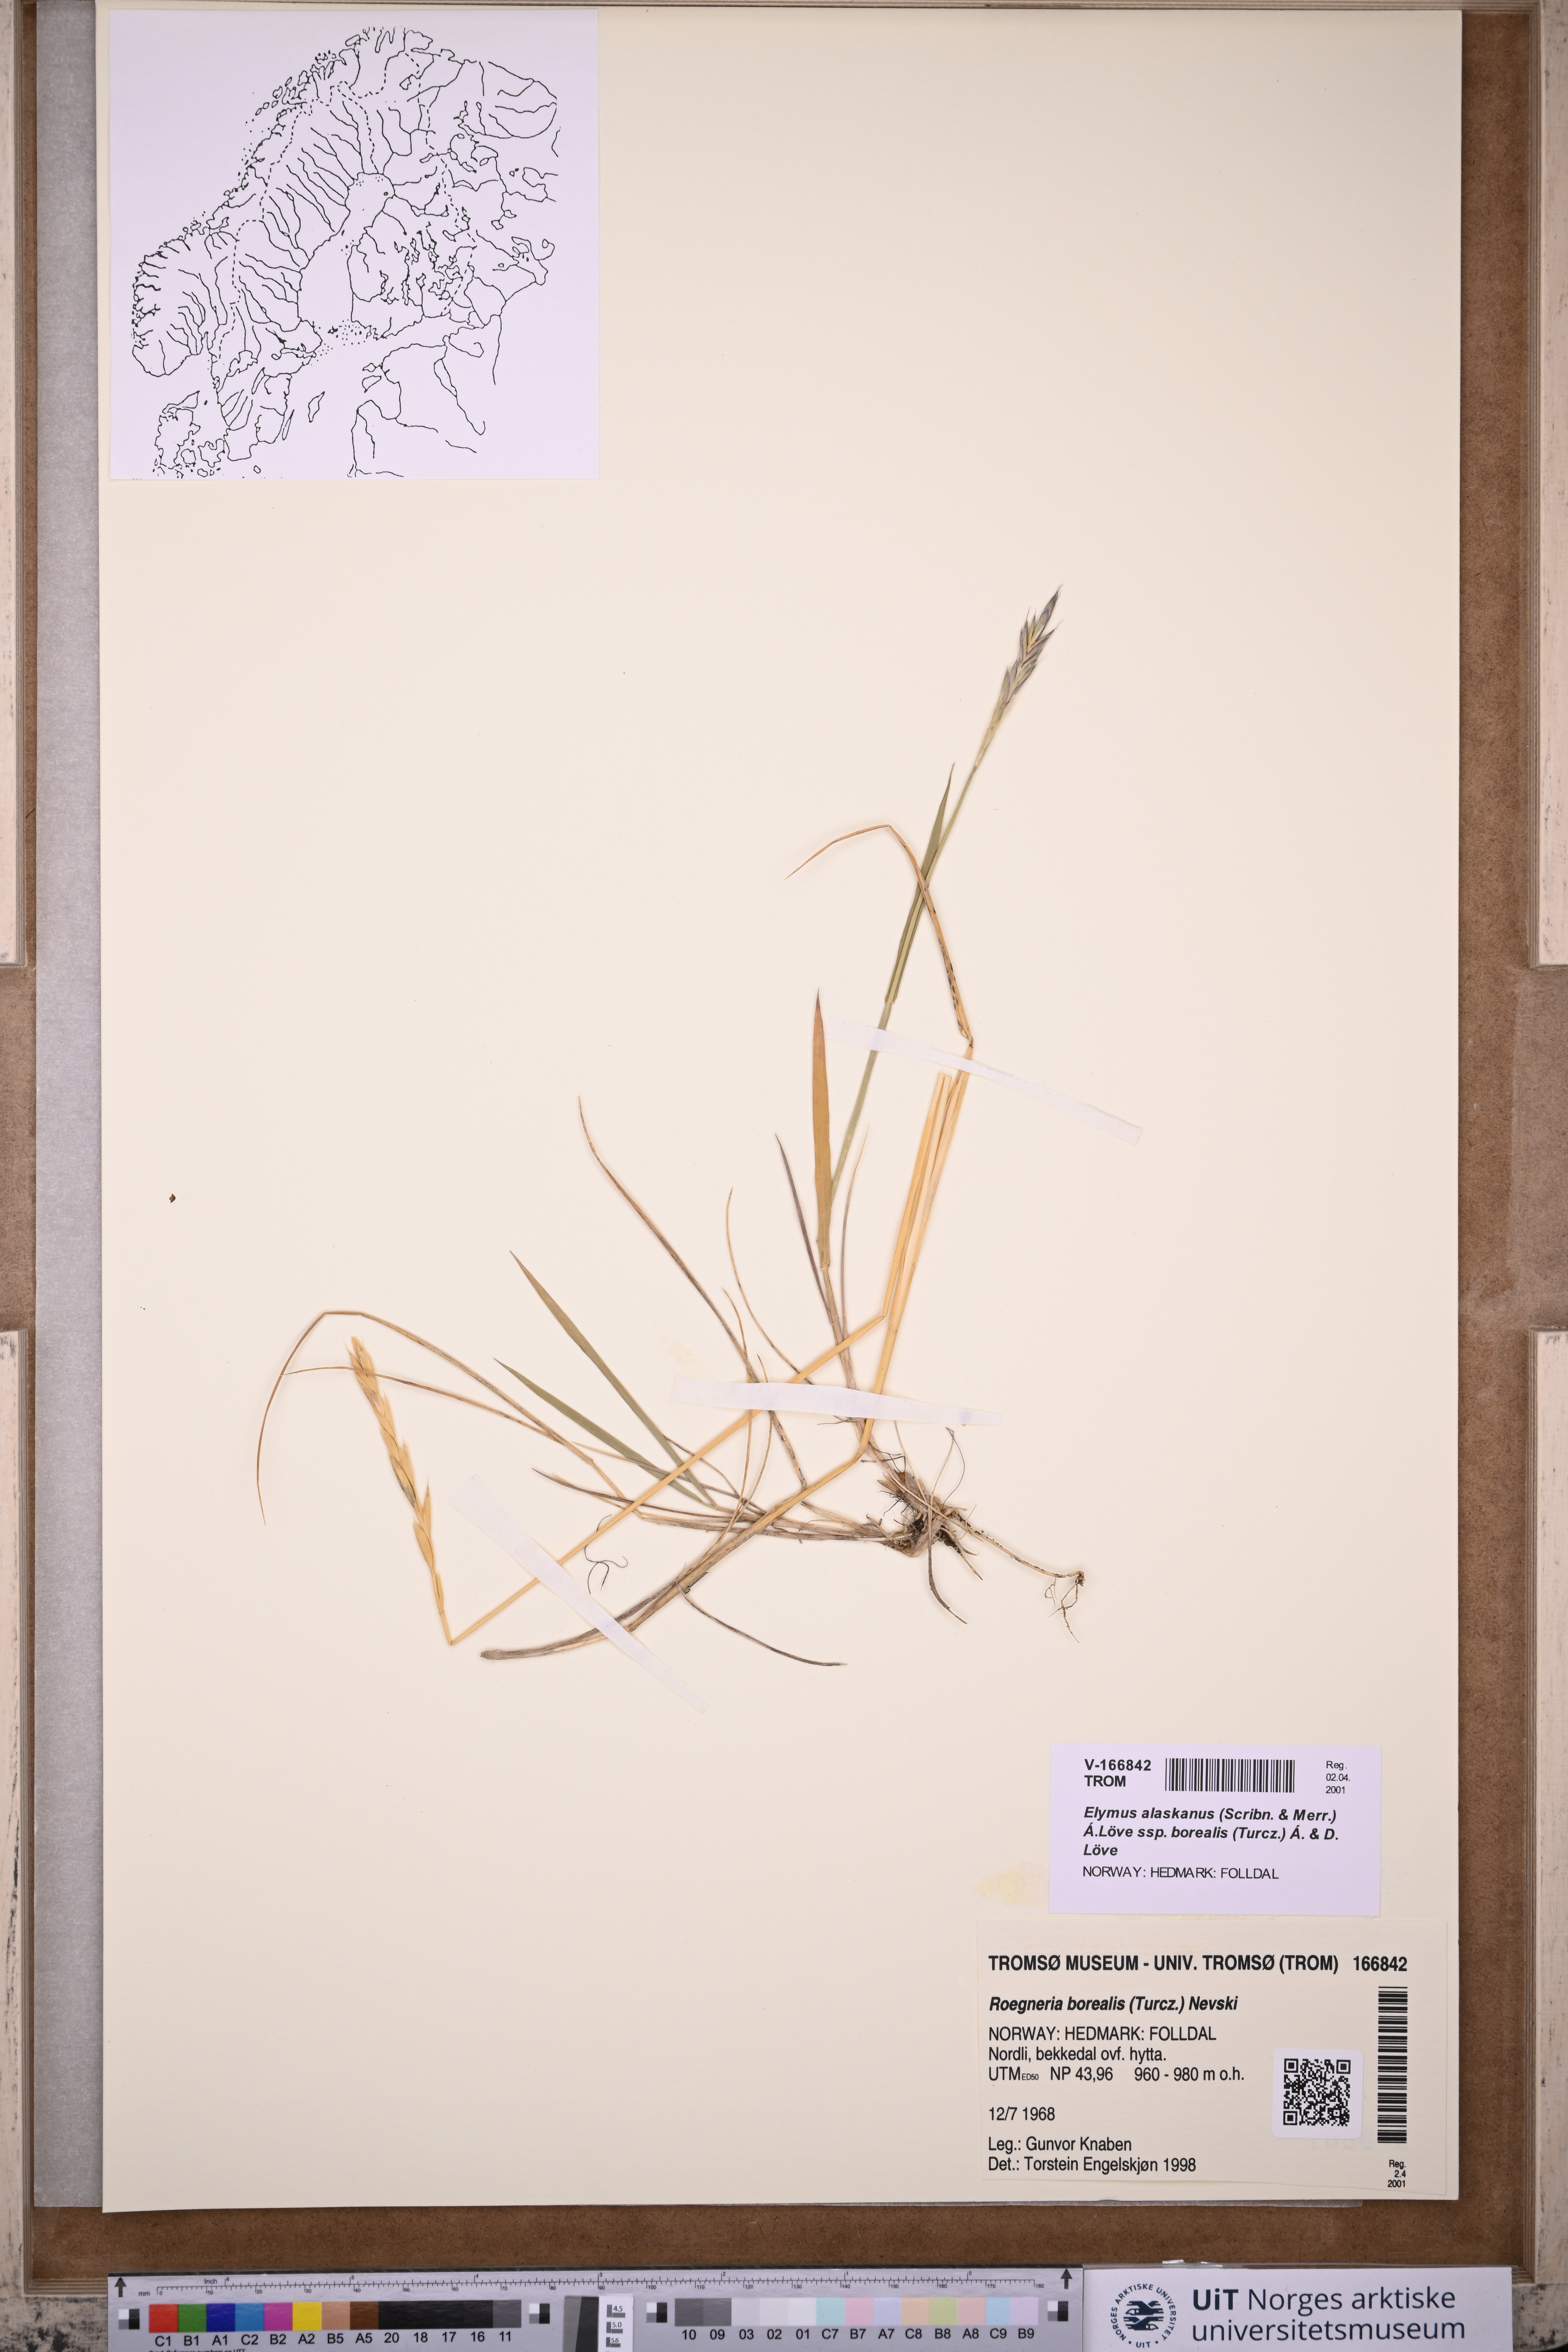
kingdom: Plantae
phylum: Tracheophyta
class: Liliopsida
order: Poales
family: Poaceae
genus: Elymus
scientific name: Elymus macrourus
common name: Northern wheatgrass
